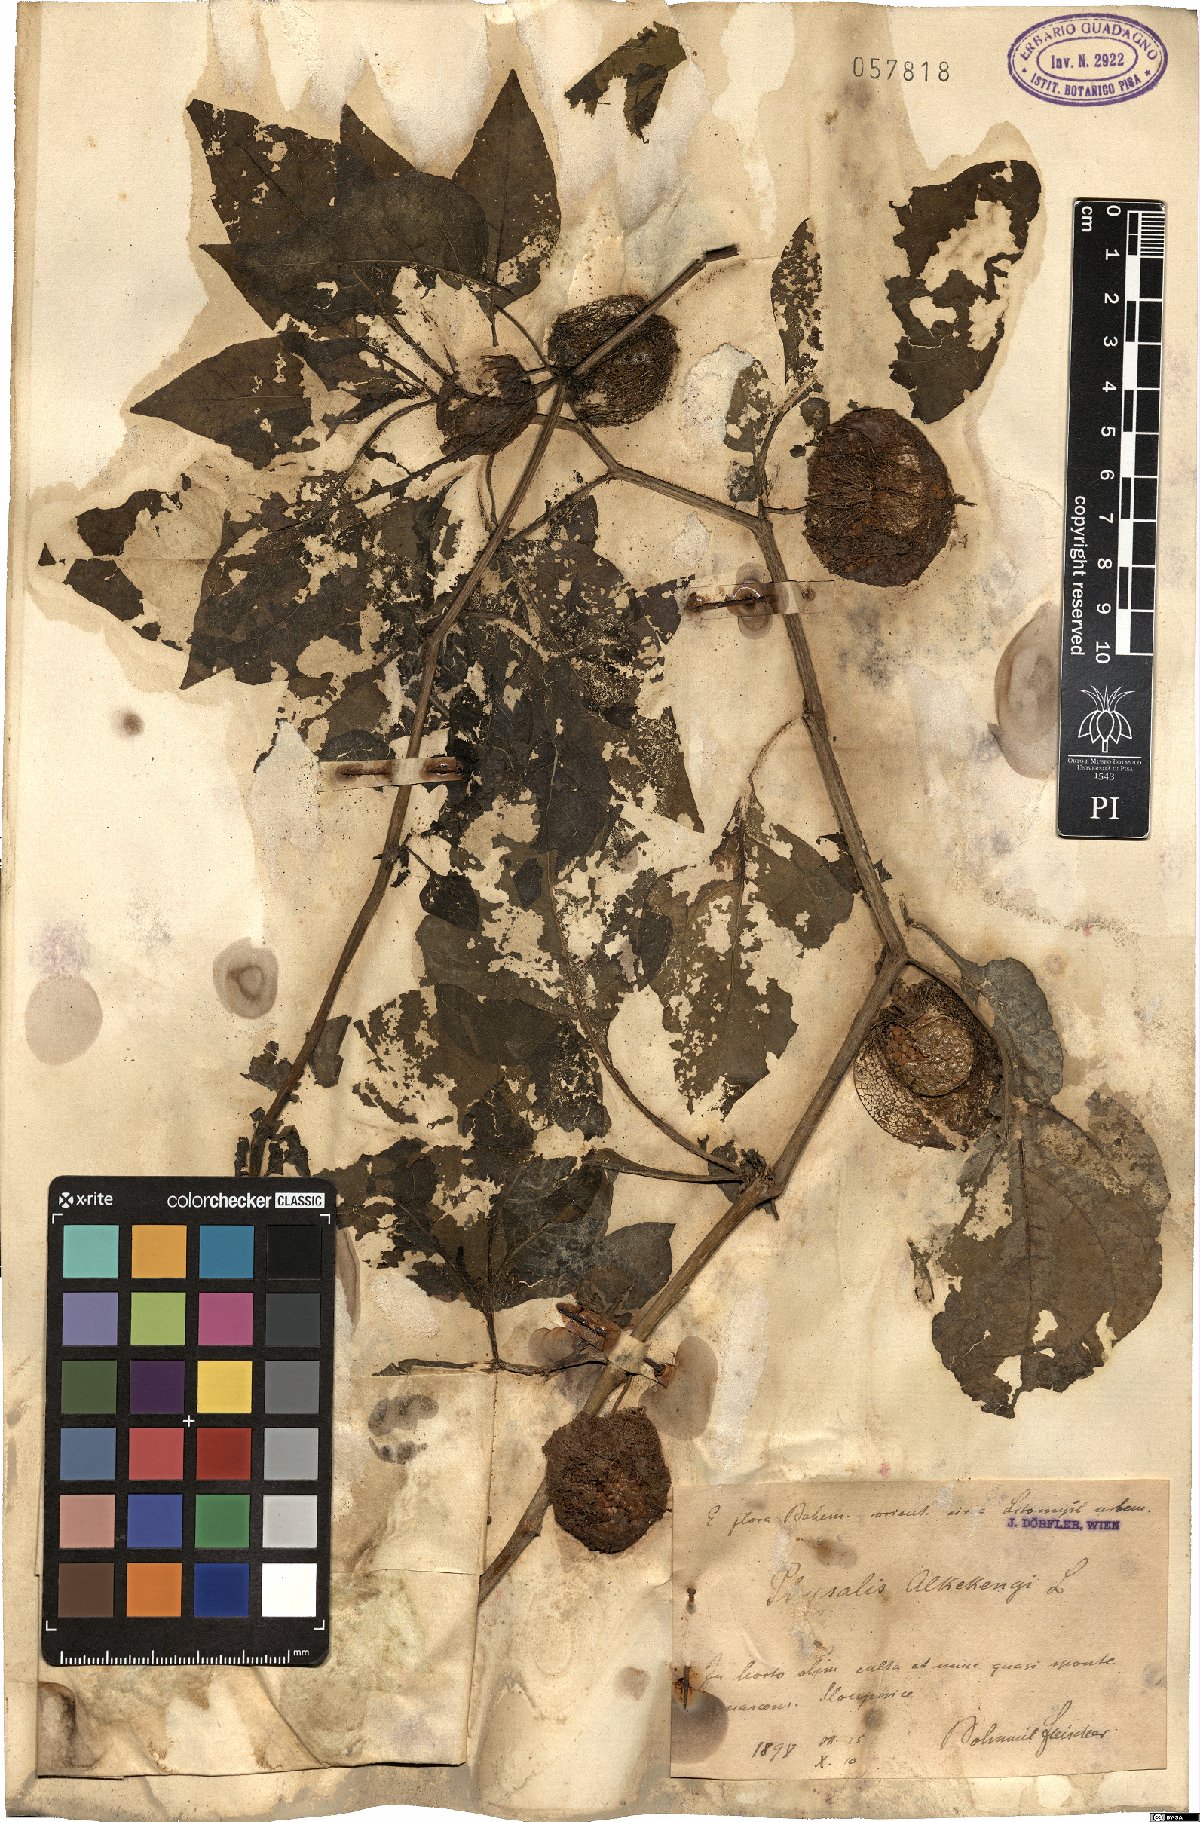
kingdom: Plantae
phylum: Tracheophyta
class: Magnoliopsida
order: Solanales
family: Solanaceae
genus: Alkekengi
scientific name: Alkekengi officinarum
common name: Japanese-lantern
